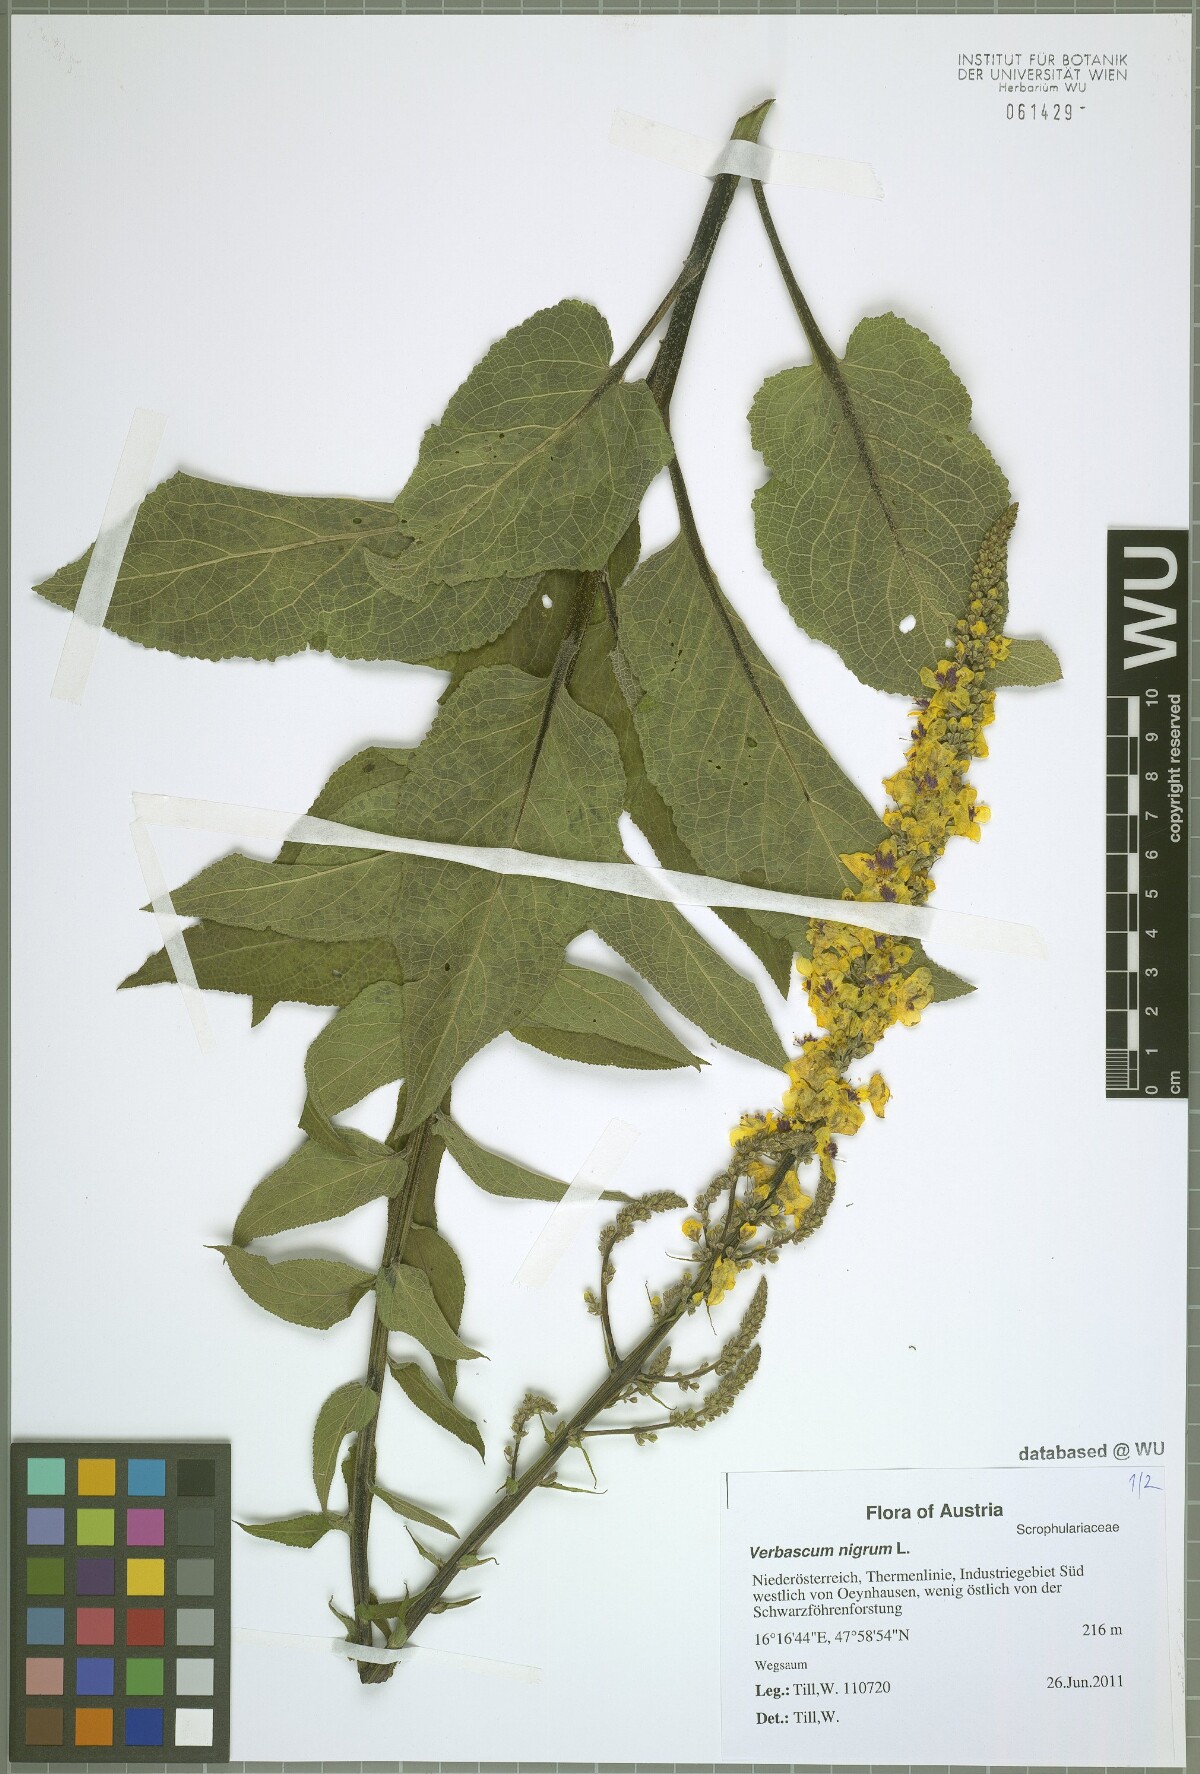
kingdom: Plantae
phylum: Tracheophyta
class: Magnoliopsida
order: Lamiales
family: Scrophulariaceae
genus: Verbascum
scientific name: Verbascum nigrum
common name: Dark mullein
